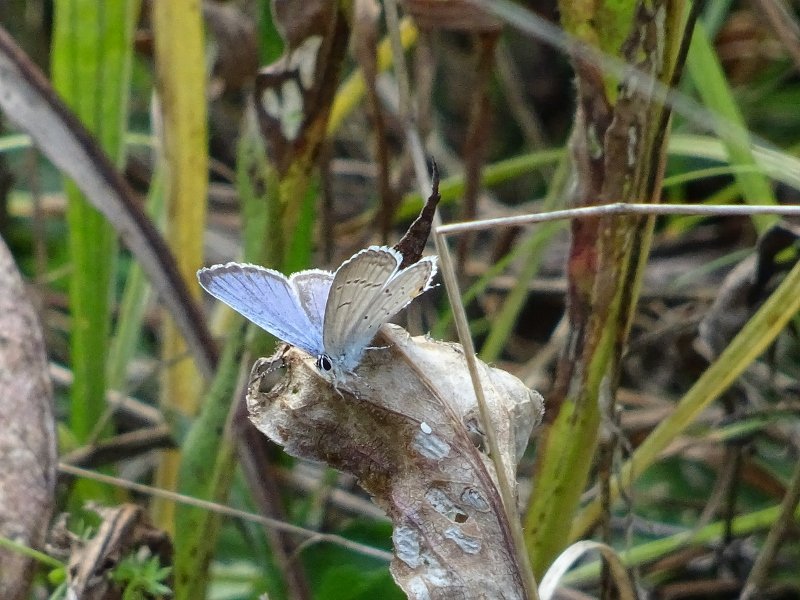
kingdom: Animalia
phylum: Arthropoda
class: Insecta
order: Lepidoptera
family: Lycaenidae
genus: Elkalyce
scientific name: Elkalyce comyntas
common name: Eastern Tailed-Blue
